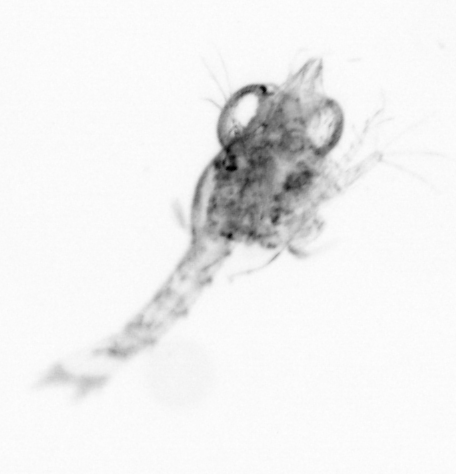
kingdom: Animalia
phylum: Arthropoda
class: Copepoda
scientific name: Copepoda
